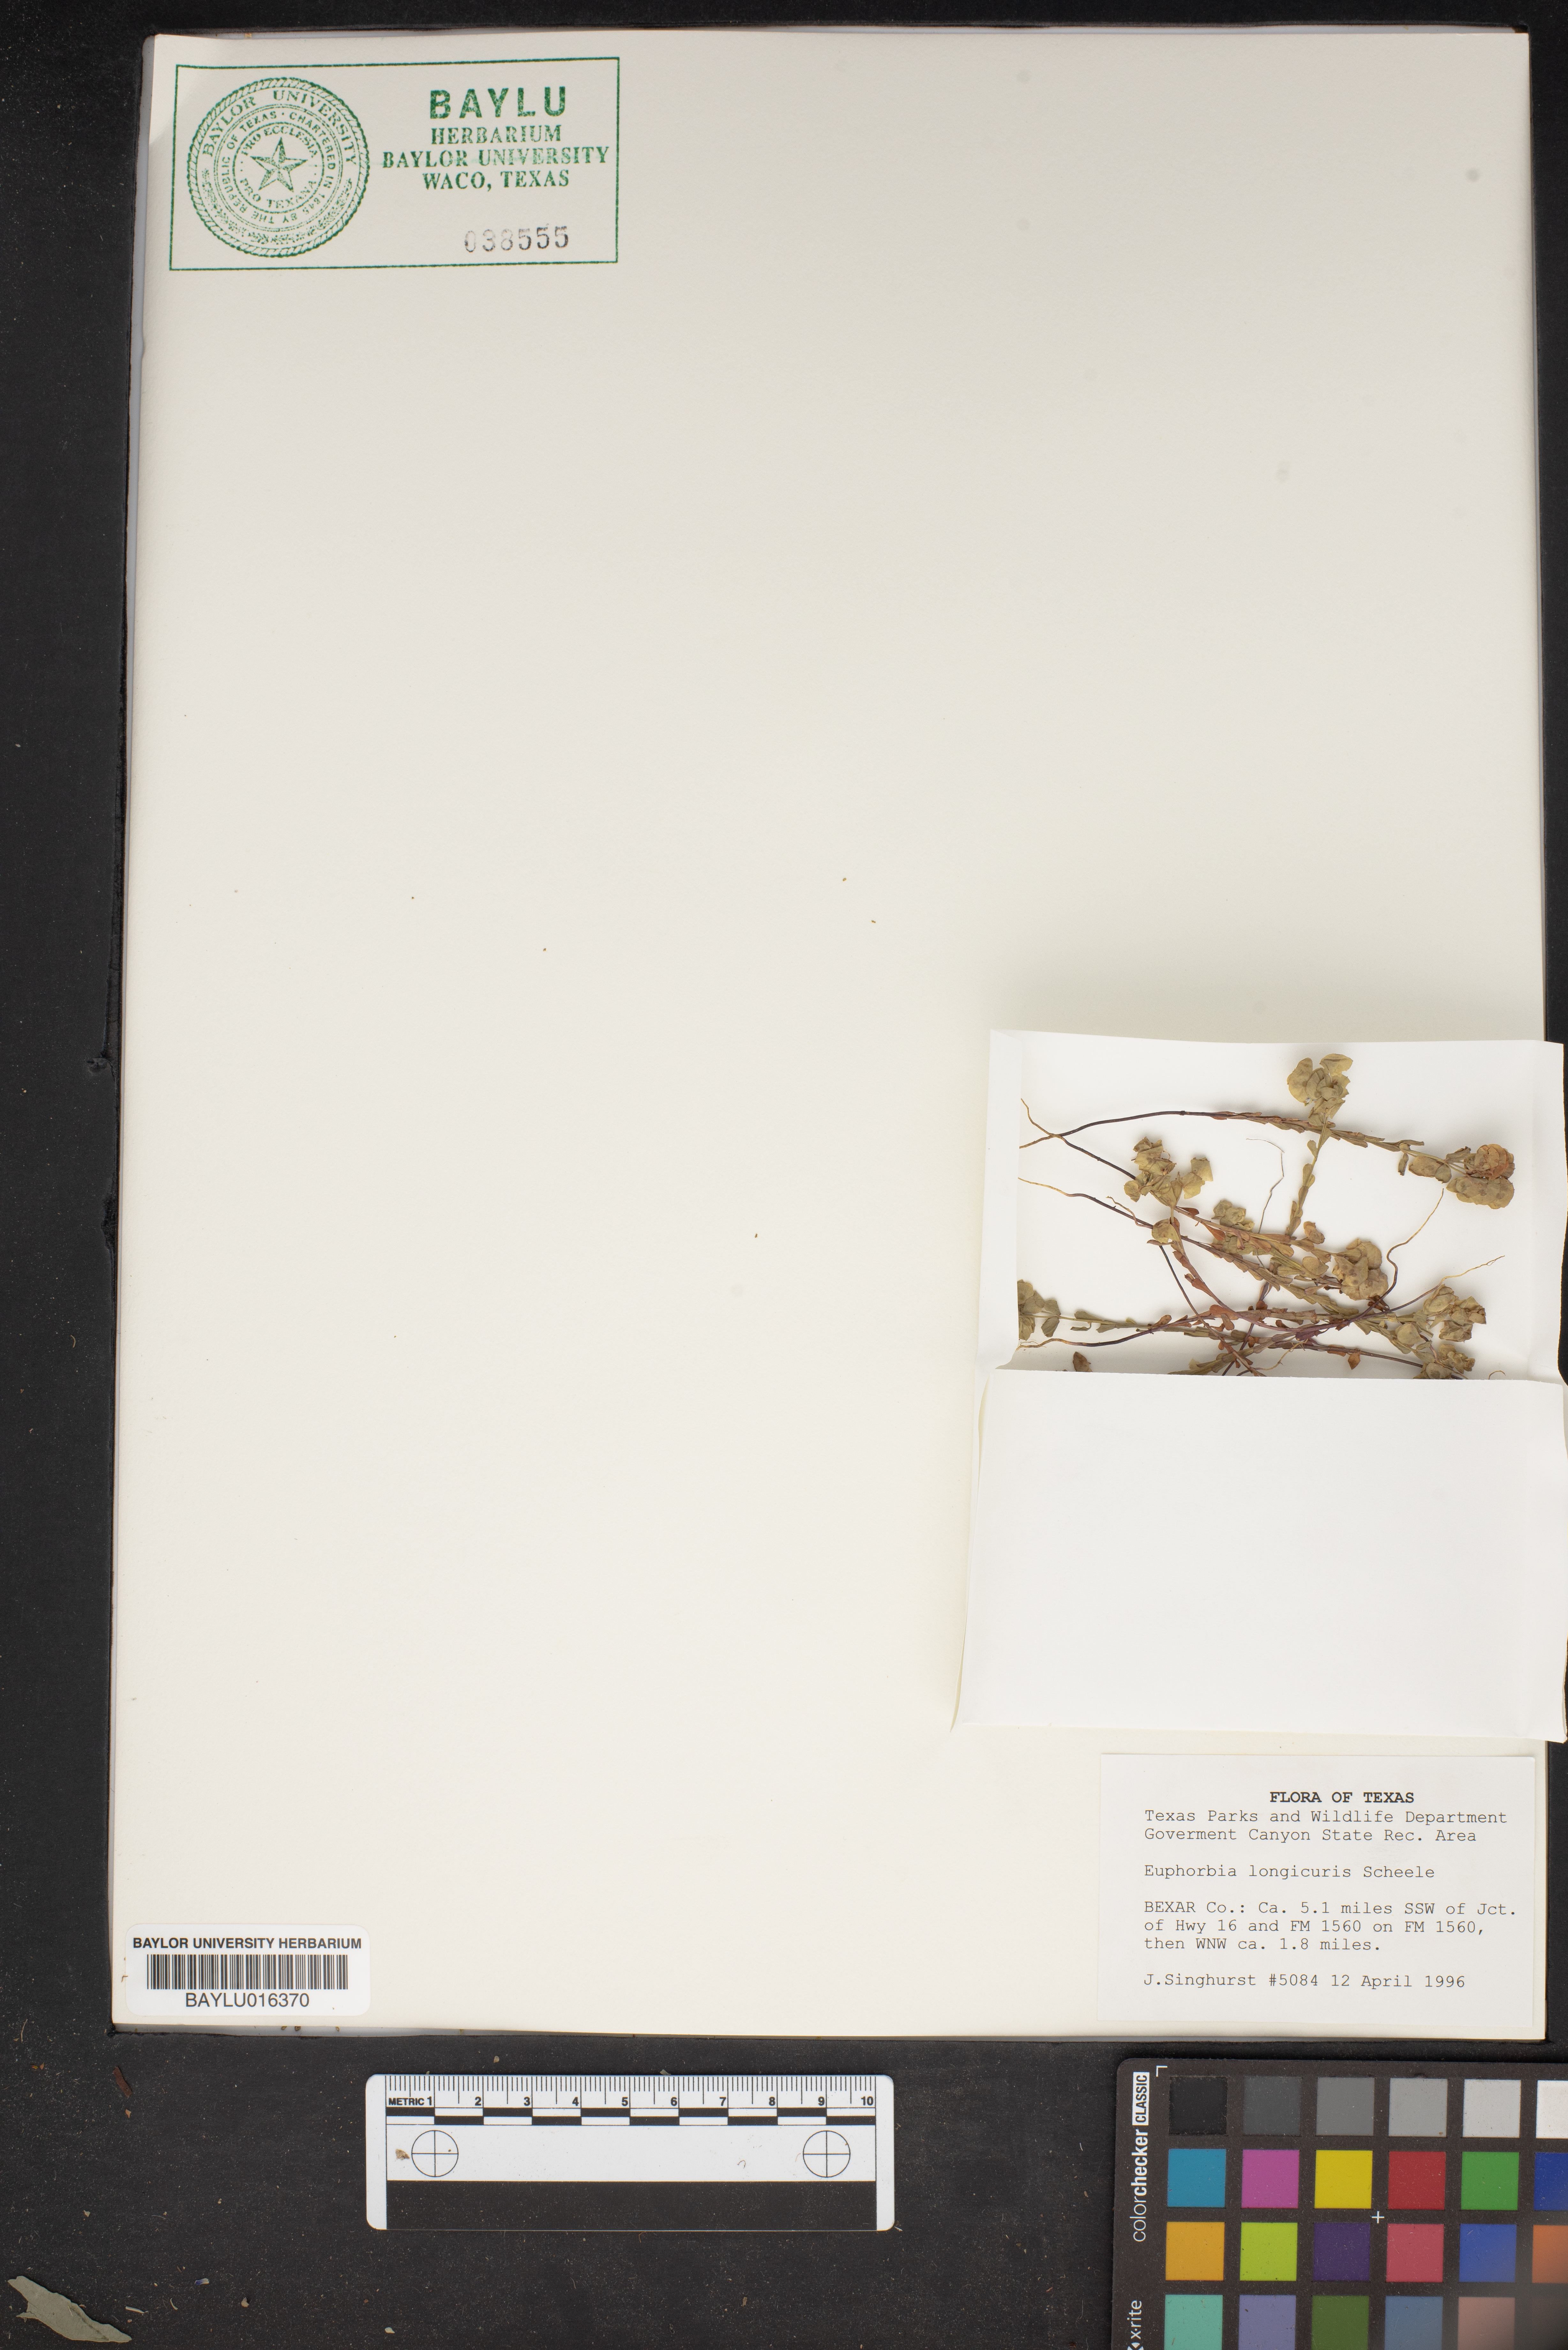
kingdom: Plantae
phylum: Tracheophyta
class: Magnoliopsida
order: Malpighiales
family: Euphorbiaceae
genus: Euphorbia
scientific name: Euphorbia longicruris
